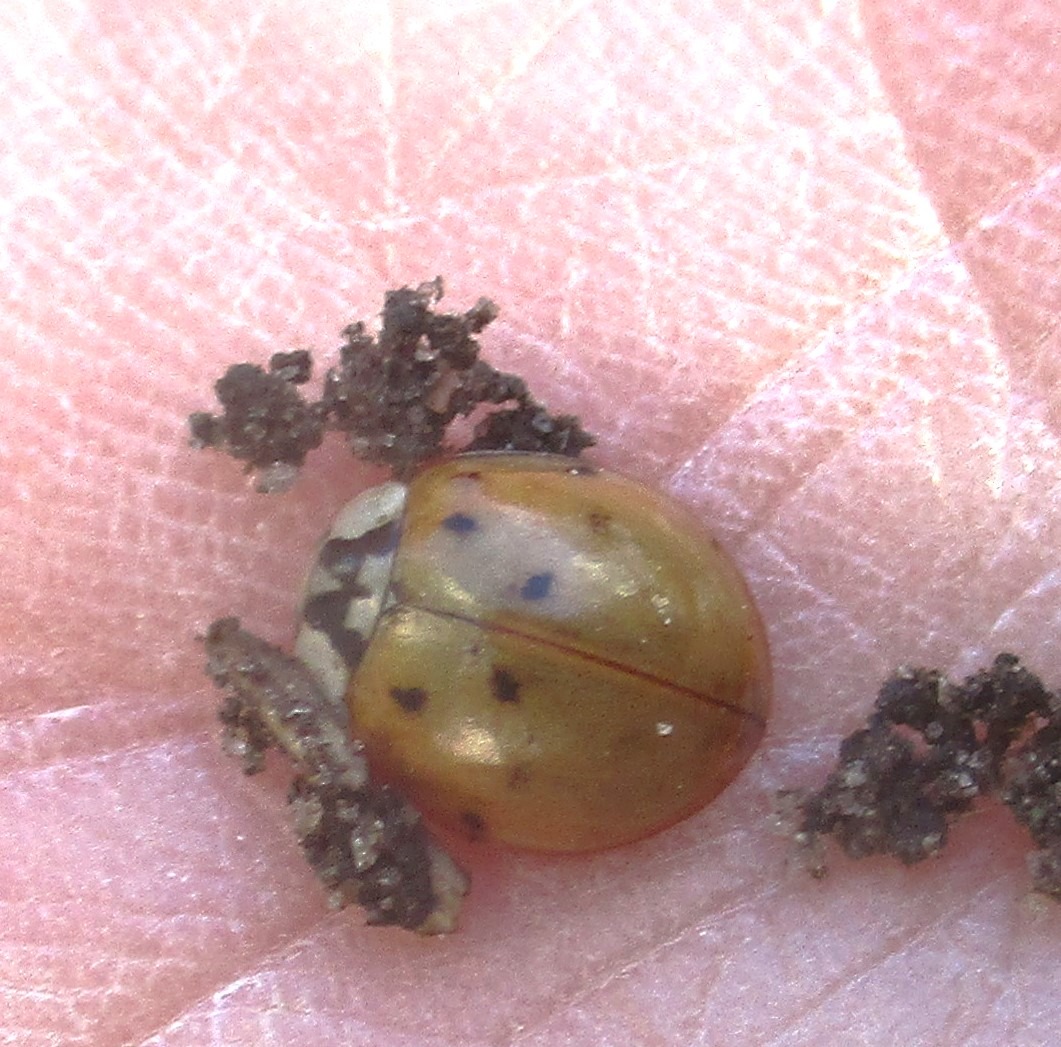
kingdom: Animalia
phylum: Arthropoda
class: Insecta
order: Coleoptera
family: Coccinellidae
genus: Harmonia
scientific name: Harmonia axyridis
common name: Harlekinmariehøne
